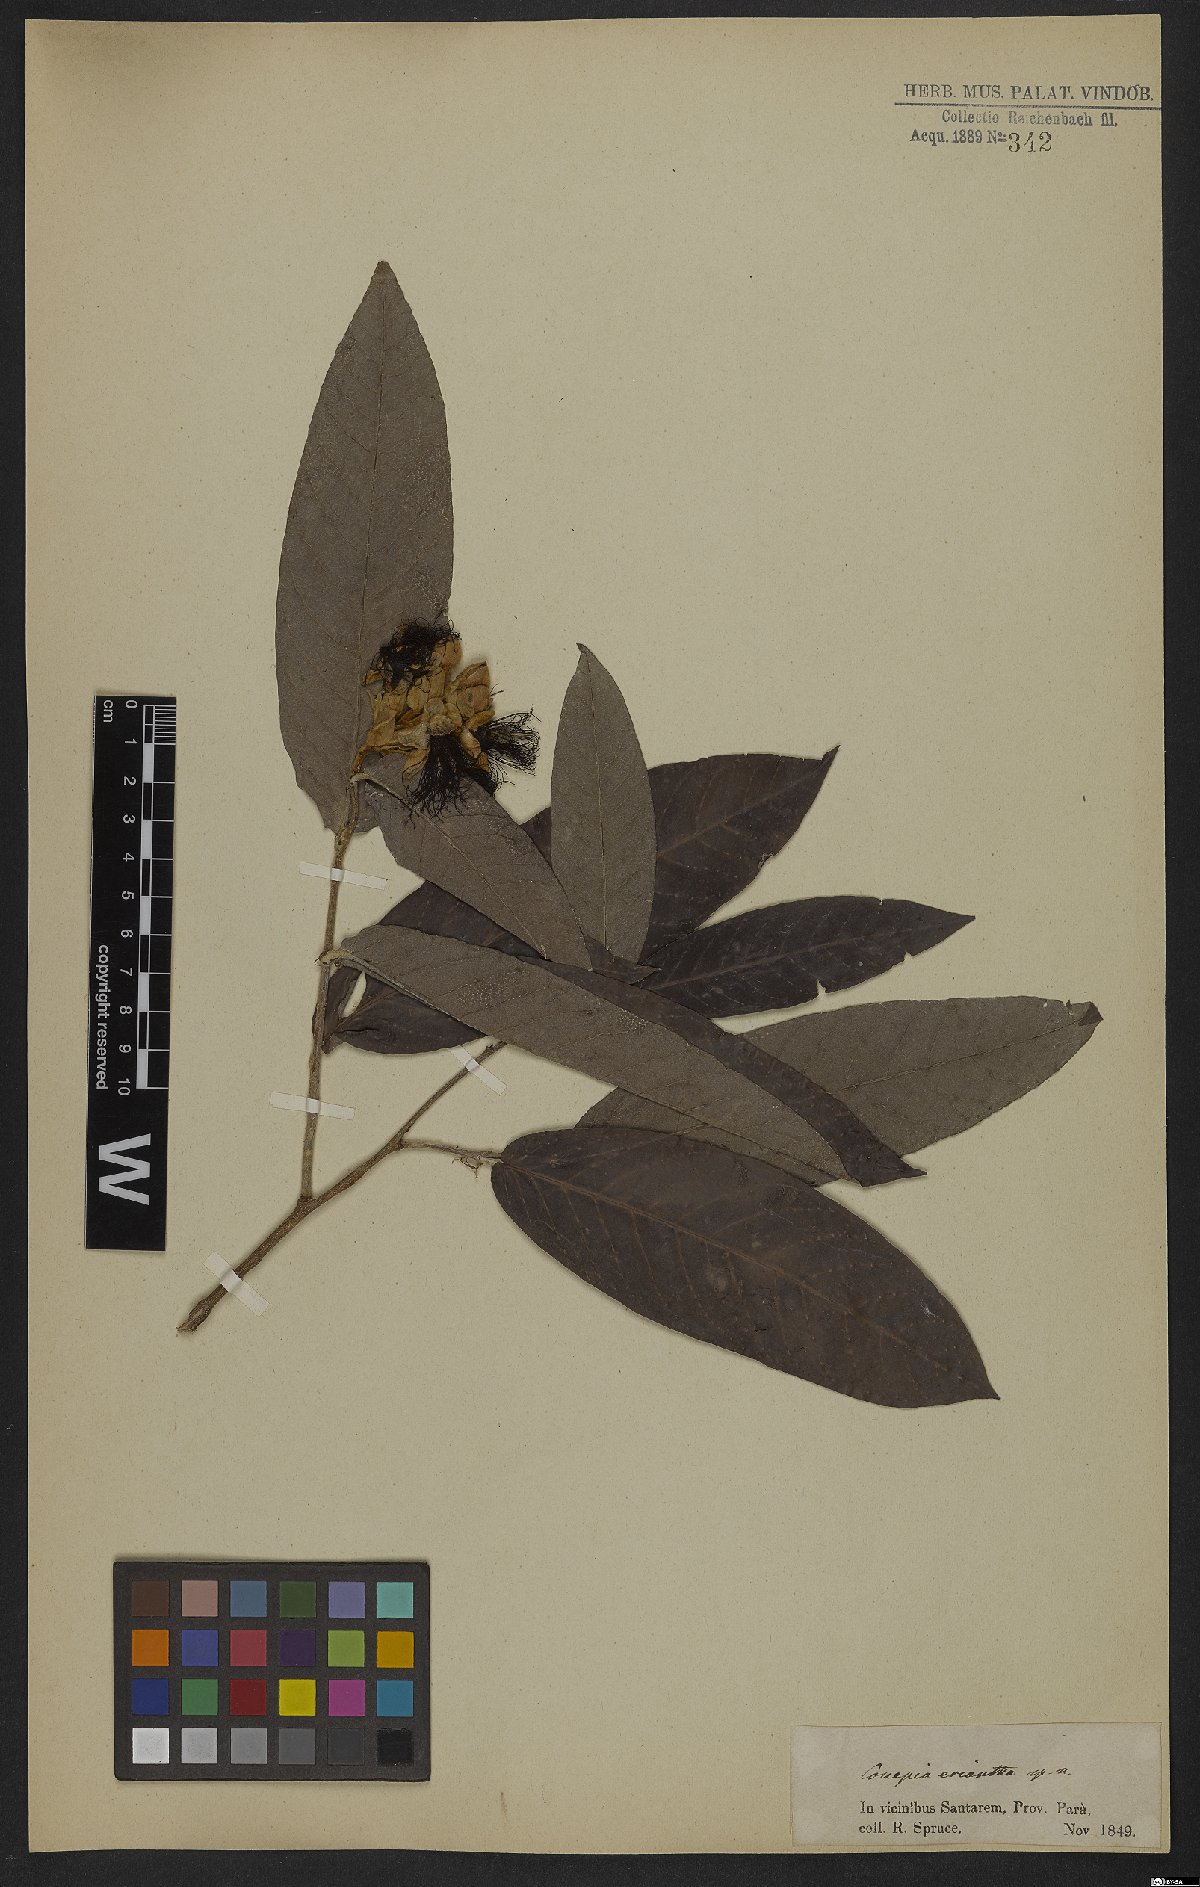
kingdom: Plantae
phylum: Tracheophyta
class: Magnoliopsida
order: Malpighiales
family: Chrysobalanaceae
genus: Couepia
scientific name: Couepia eriantha
